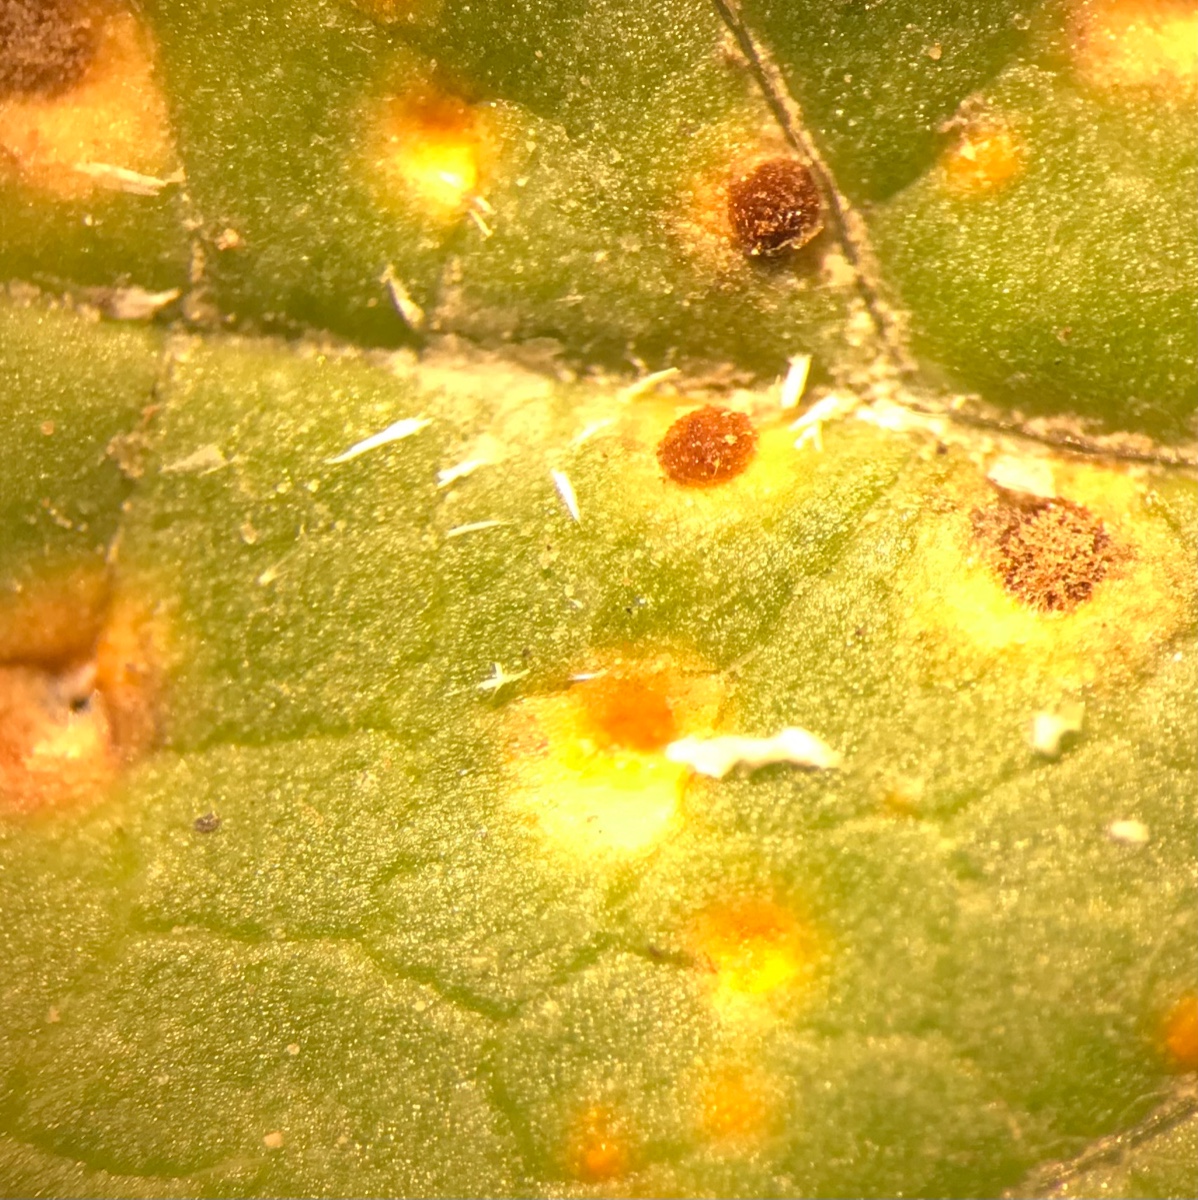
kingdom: Fungi
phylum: Basidiomycota
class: Pucciniomycetes
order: Pucciniales
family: Pucciniaceae
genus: Puccinia
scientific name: Puccinia malvacearum
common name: stokrose-tvecellerust
